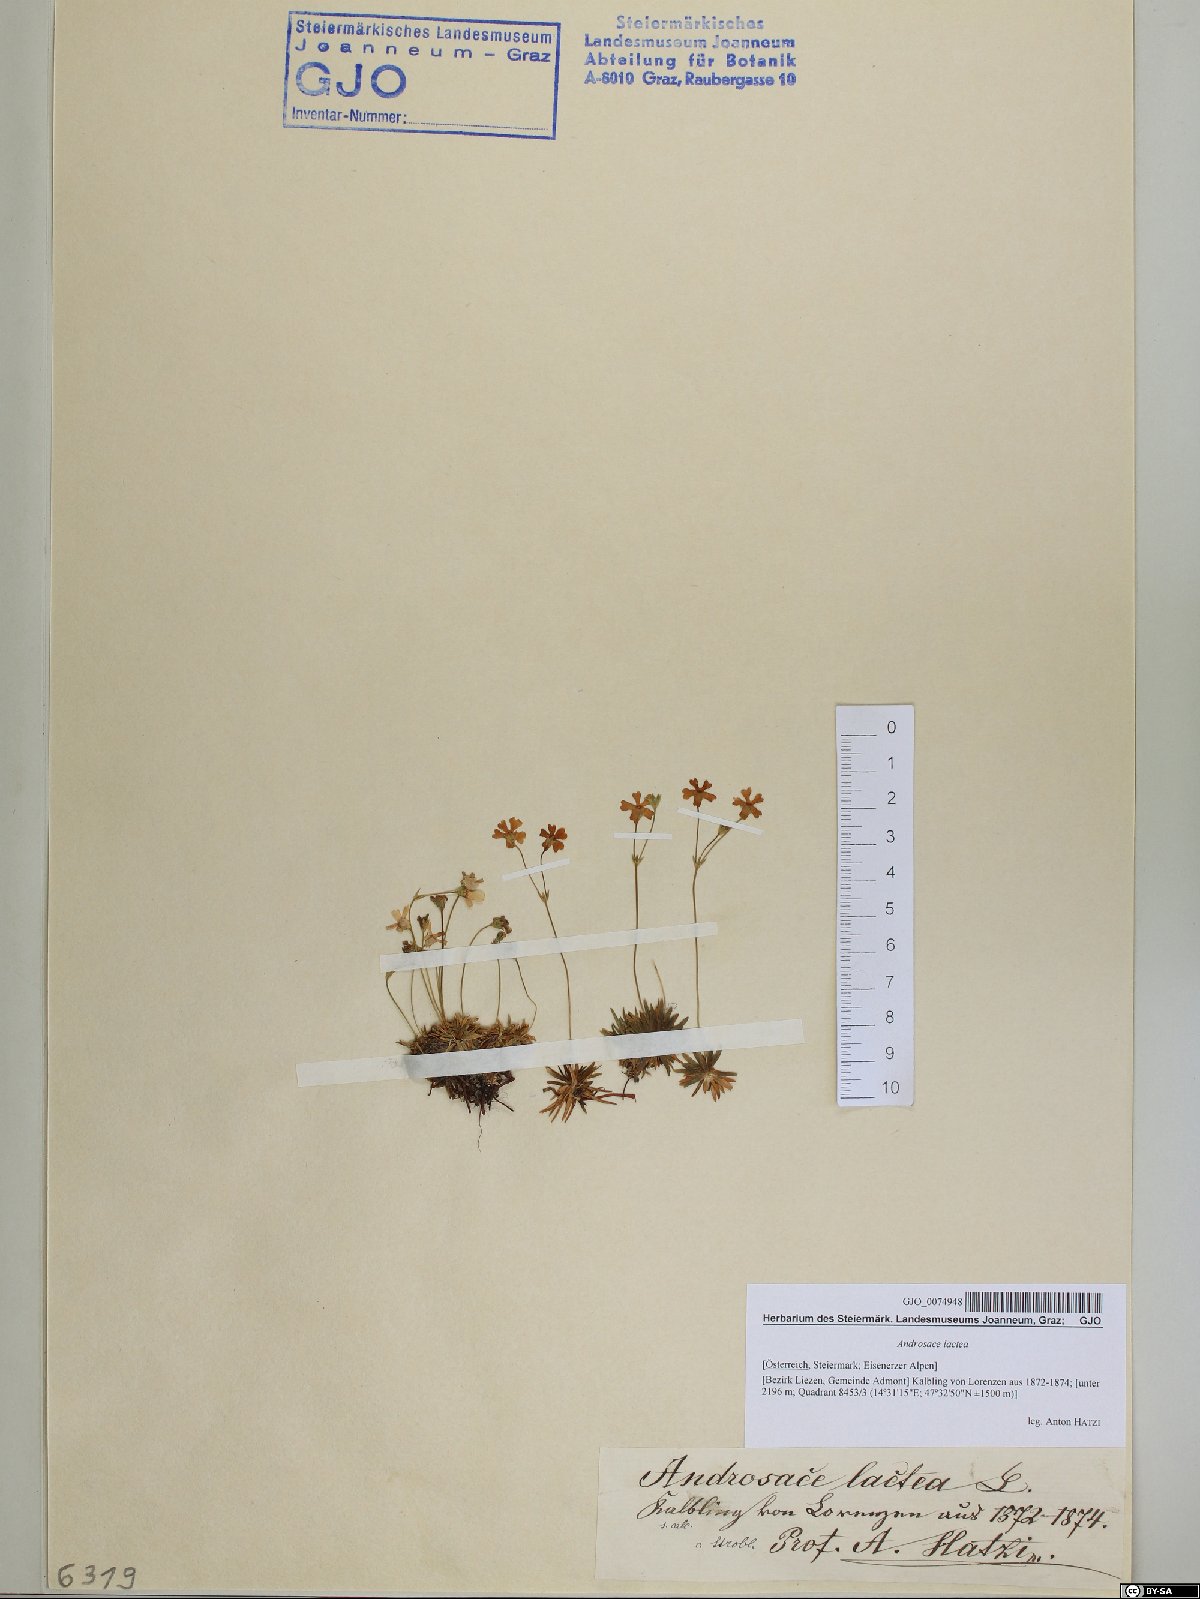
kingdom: Plantae
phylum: Tracheophyta
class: Magnoliopsida
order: Ericales
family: Primulaceae
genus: Androsace
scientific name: Androsace lactea
